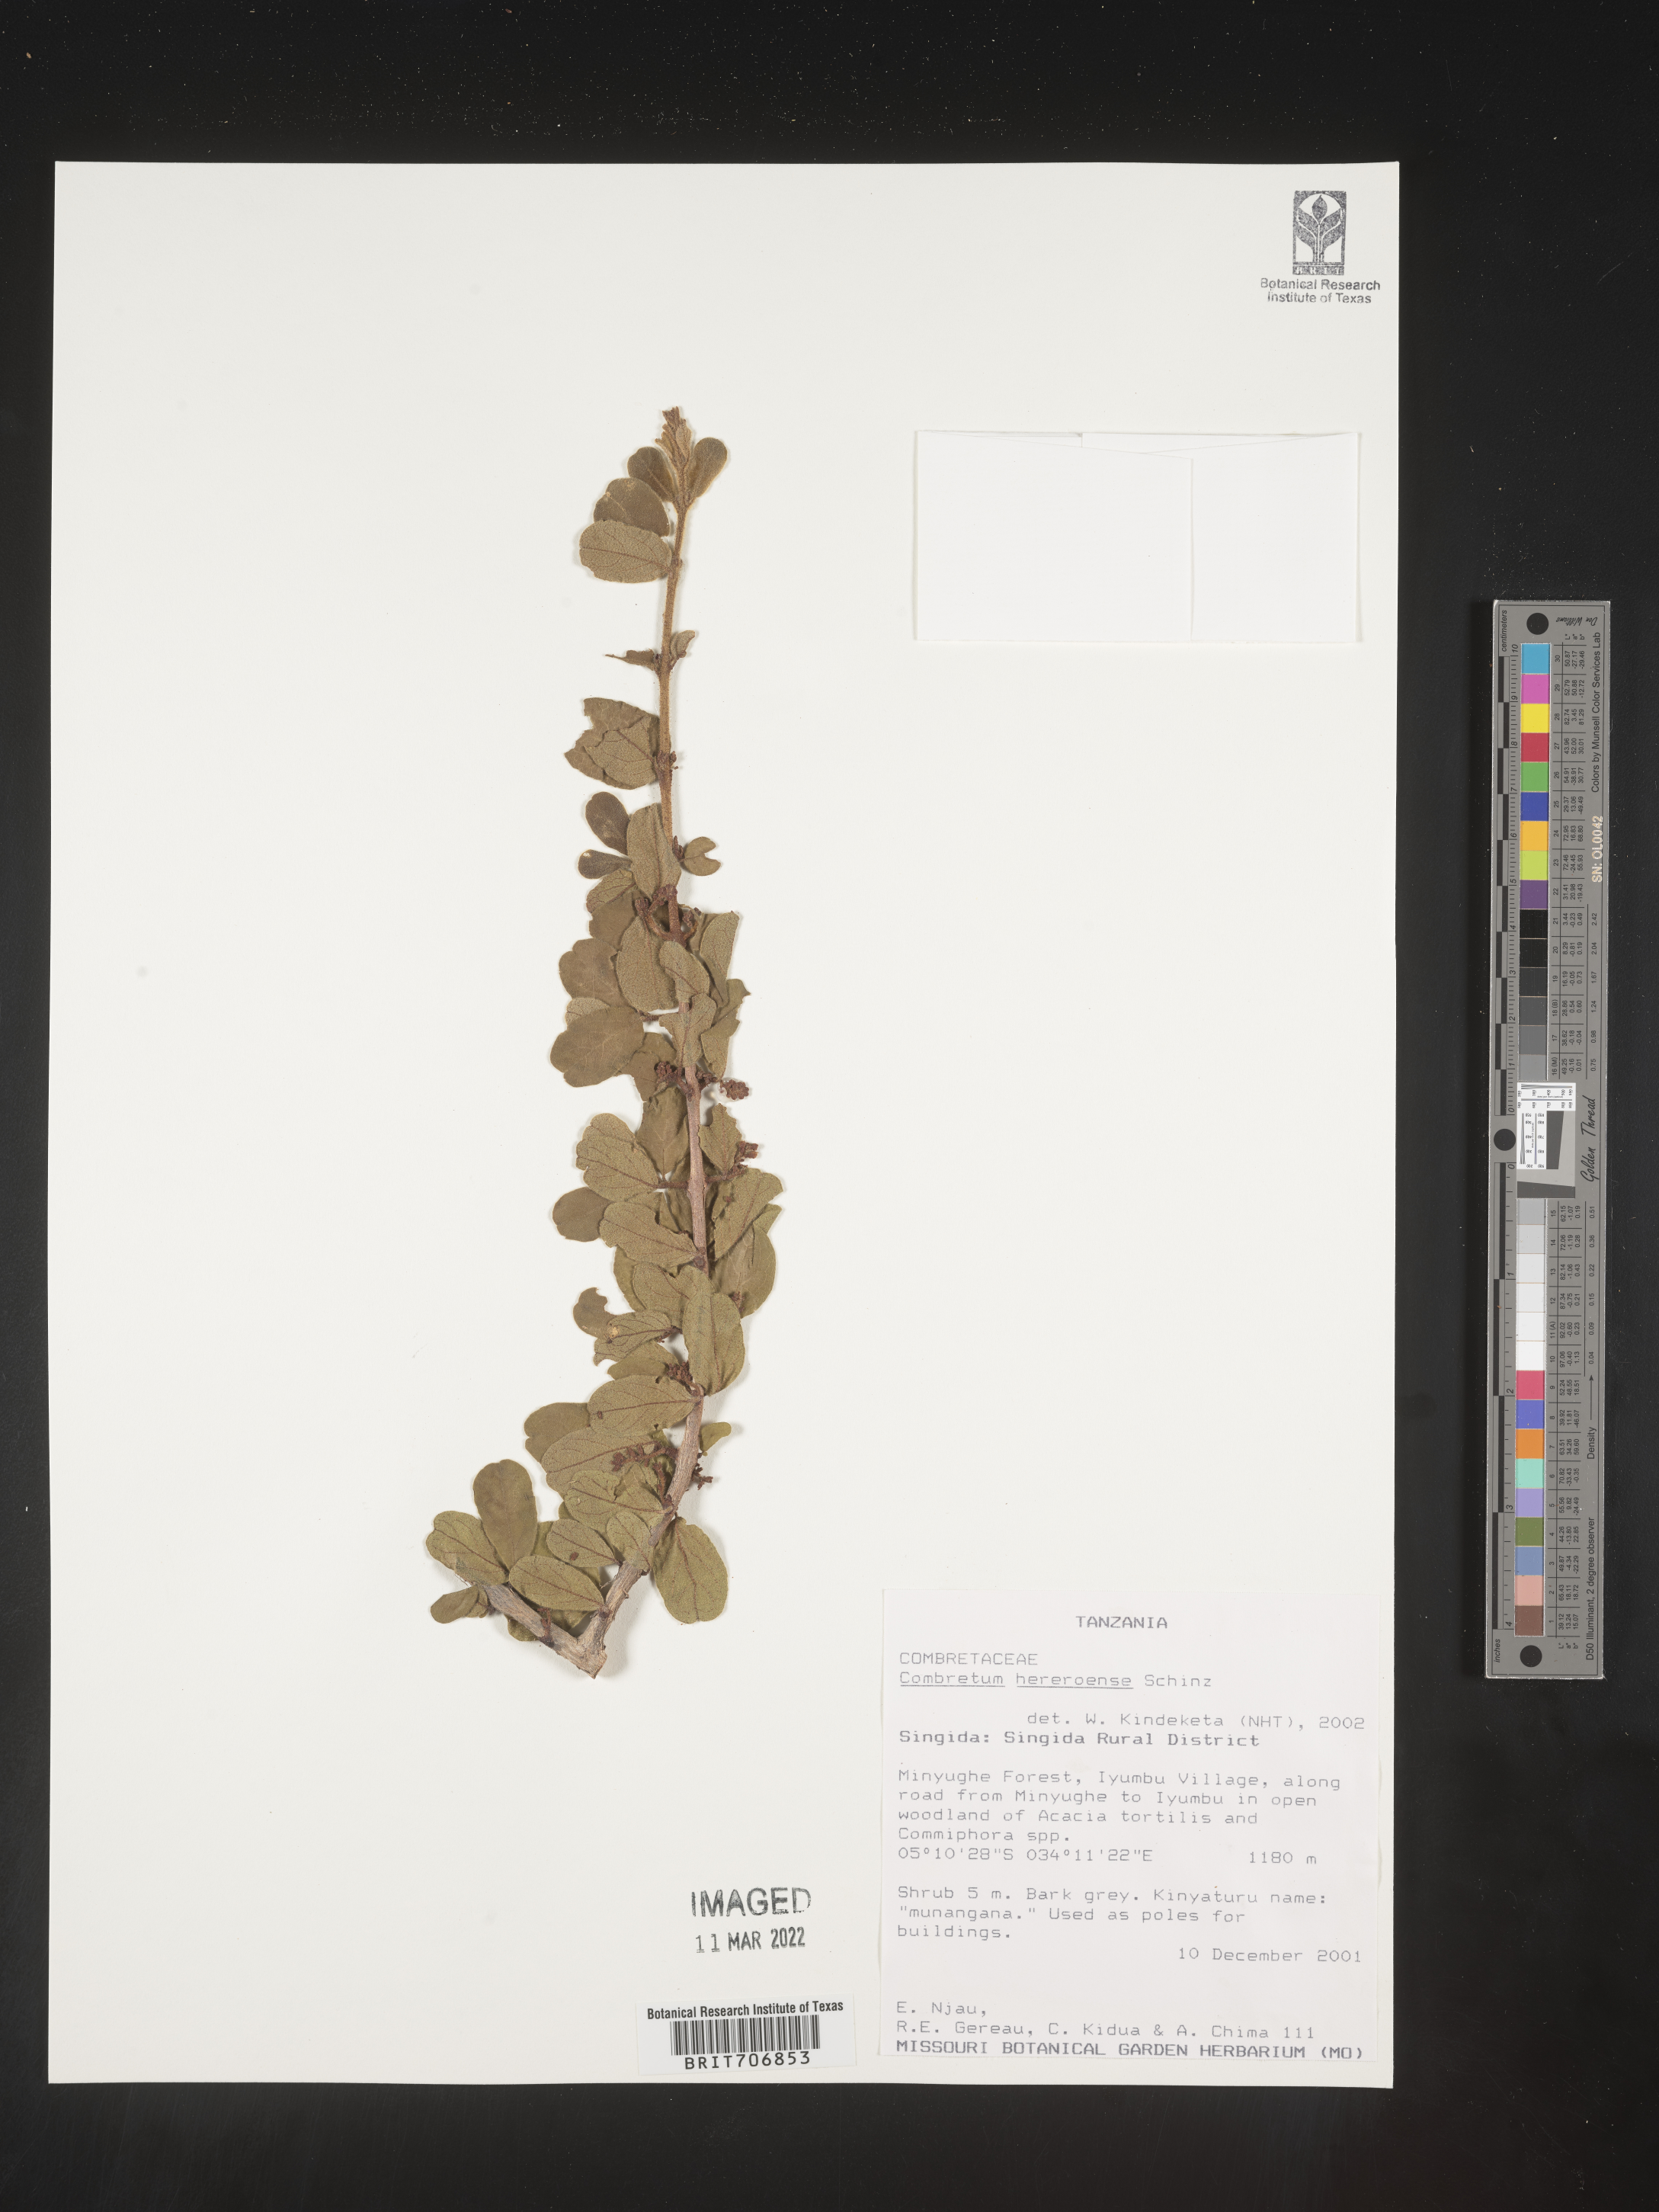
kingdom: Plantae
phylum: Tracheophyta
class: Magnoliopsida
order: Myrtales
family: Combretaceae
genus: Combretum
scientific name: Combretum
